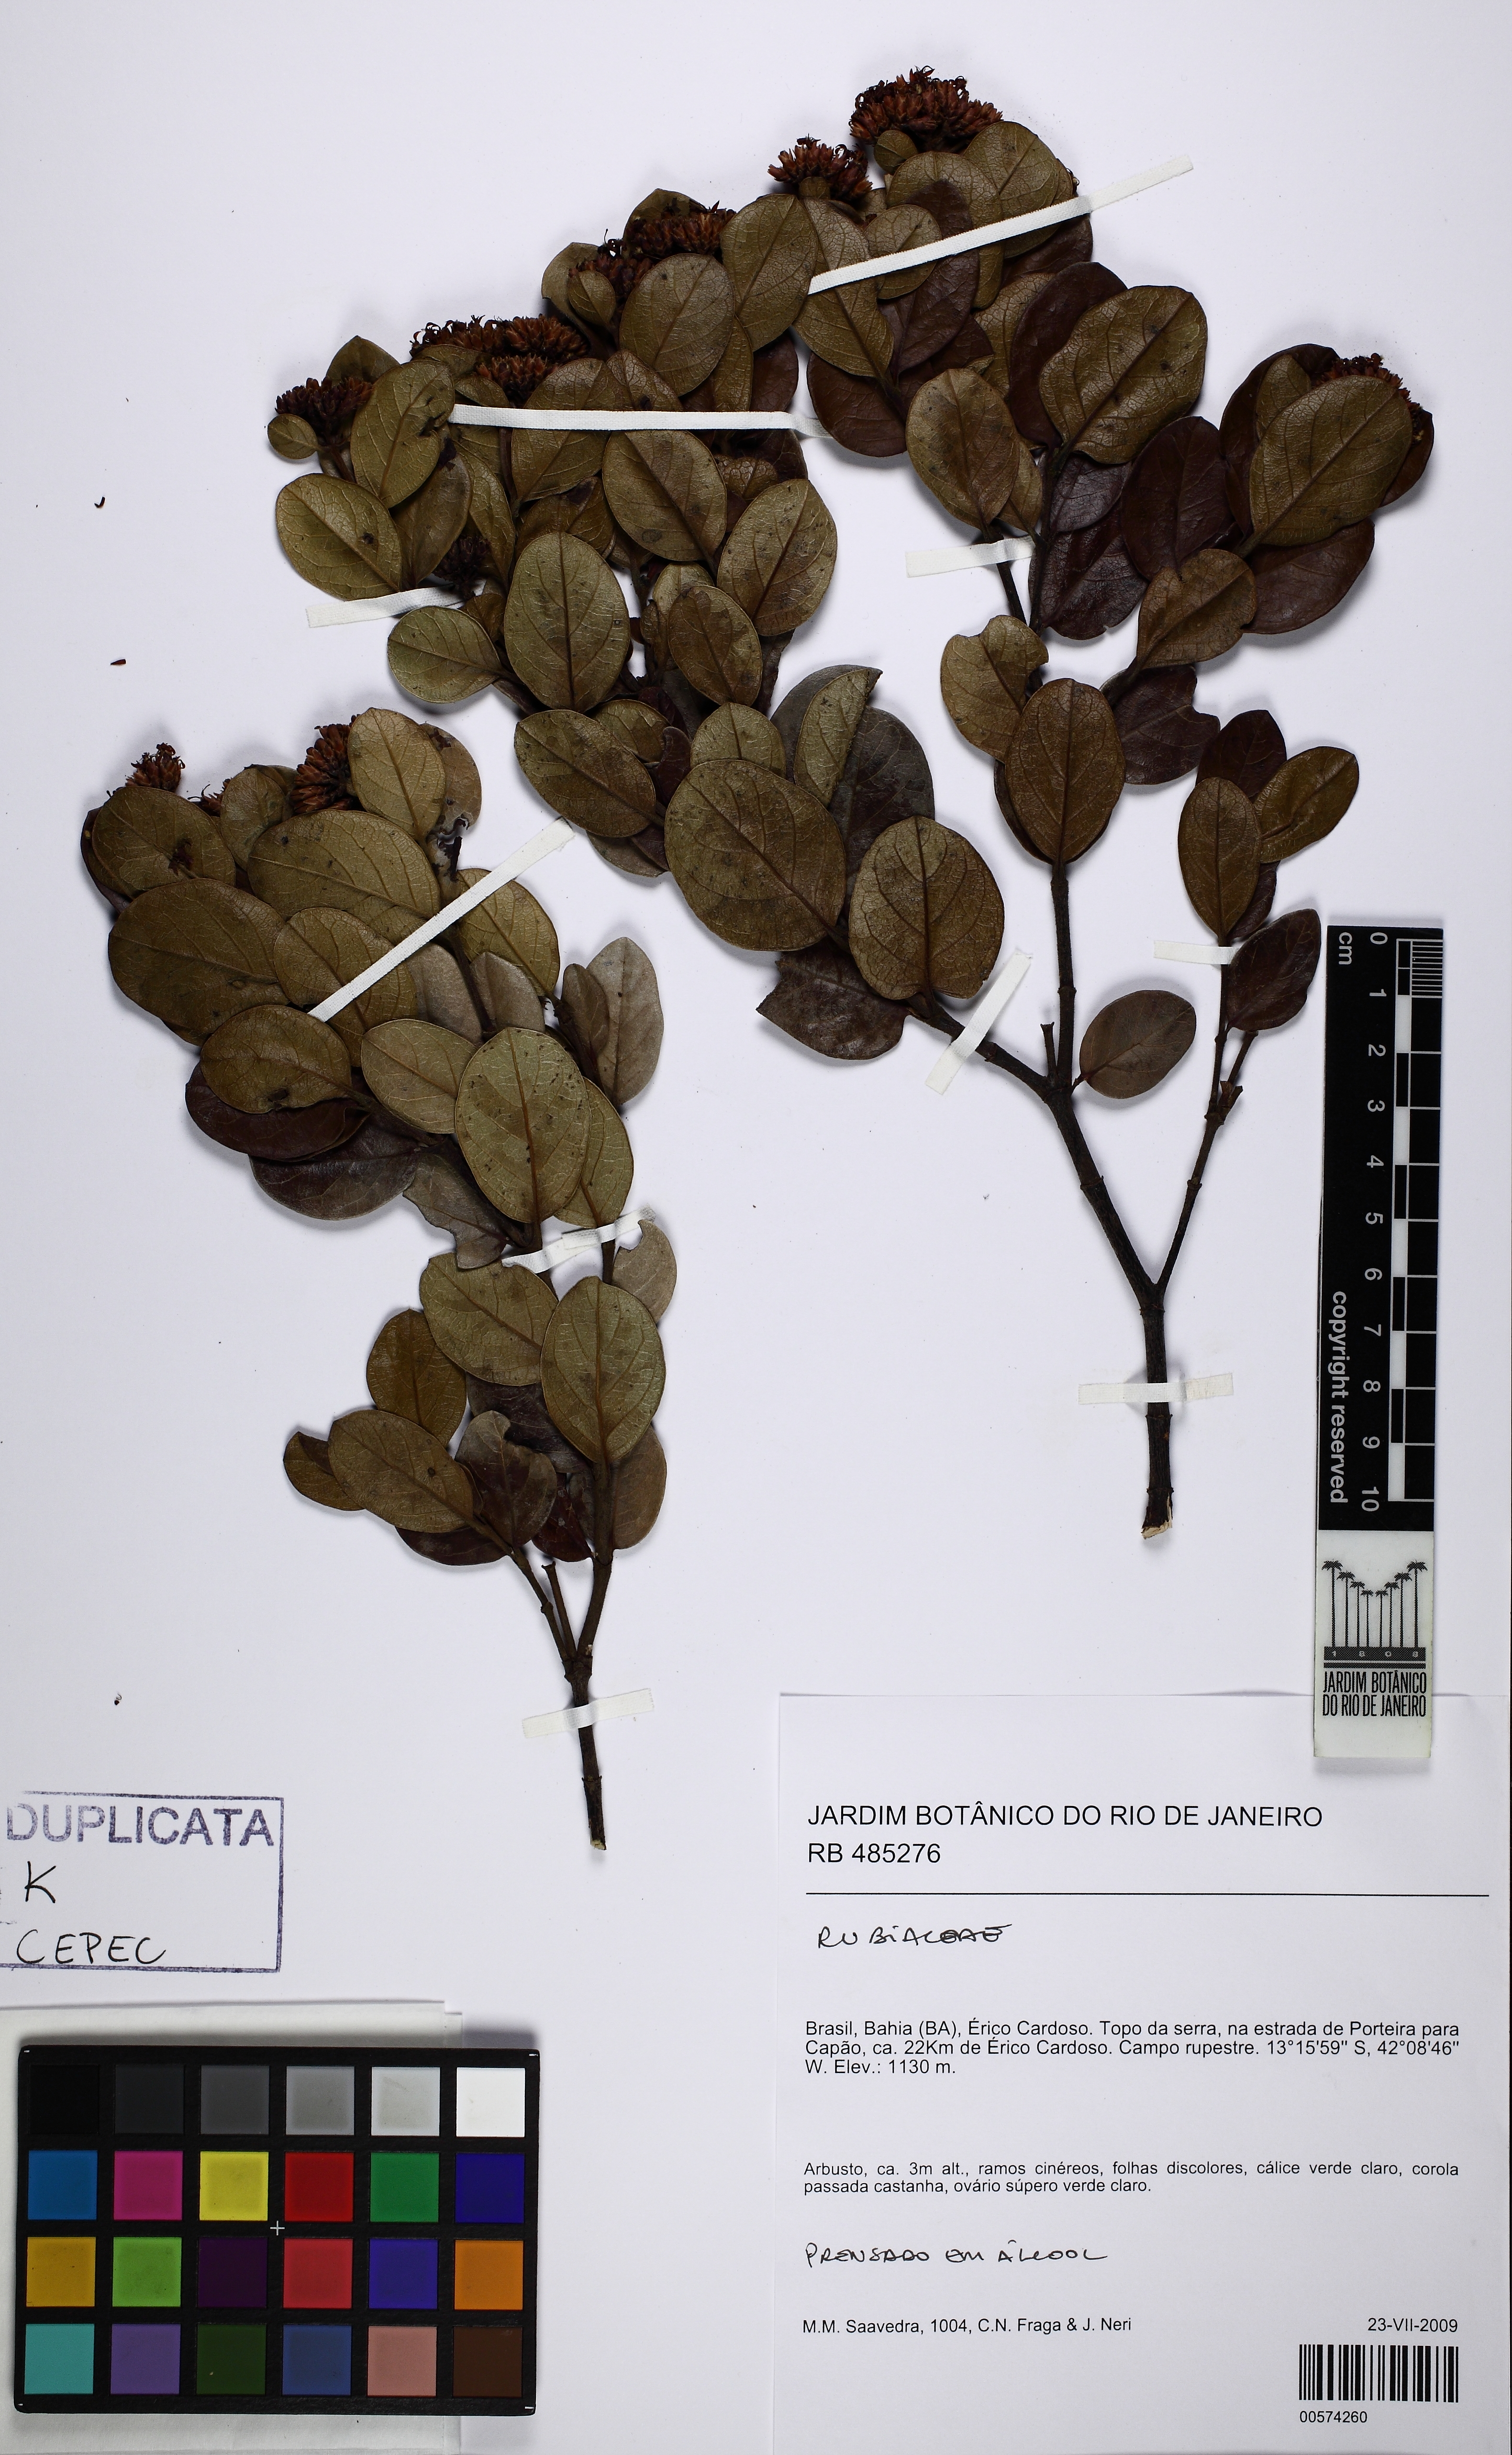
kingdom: Plantae
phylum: Tracheophyta
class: Magnoliopsida
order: Gentianales
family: Loganiaceae
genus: Antonia
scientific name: Antonia ovata
